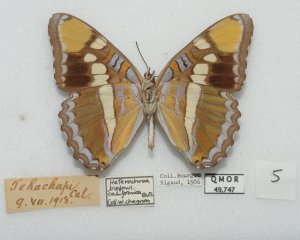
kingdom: Animalia
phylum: Arthropoda
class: Insecta
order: Lepidoptera
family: Nymphalidae
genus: Limenitis
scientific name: Limenitis bredowii
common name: California Sister
